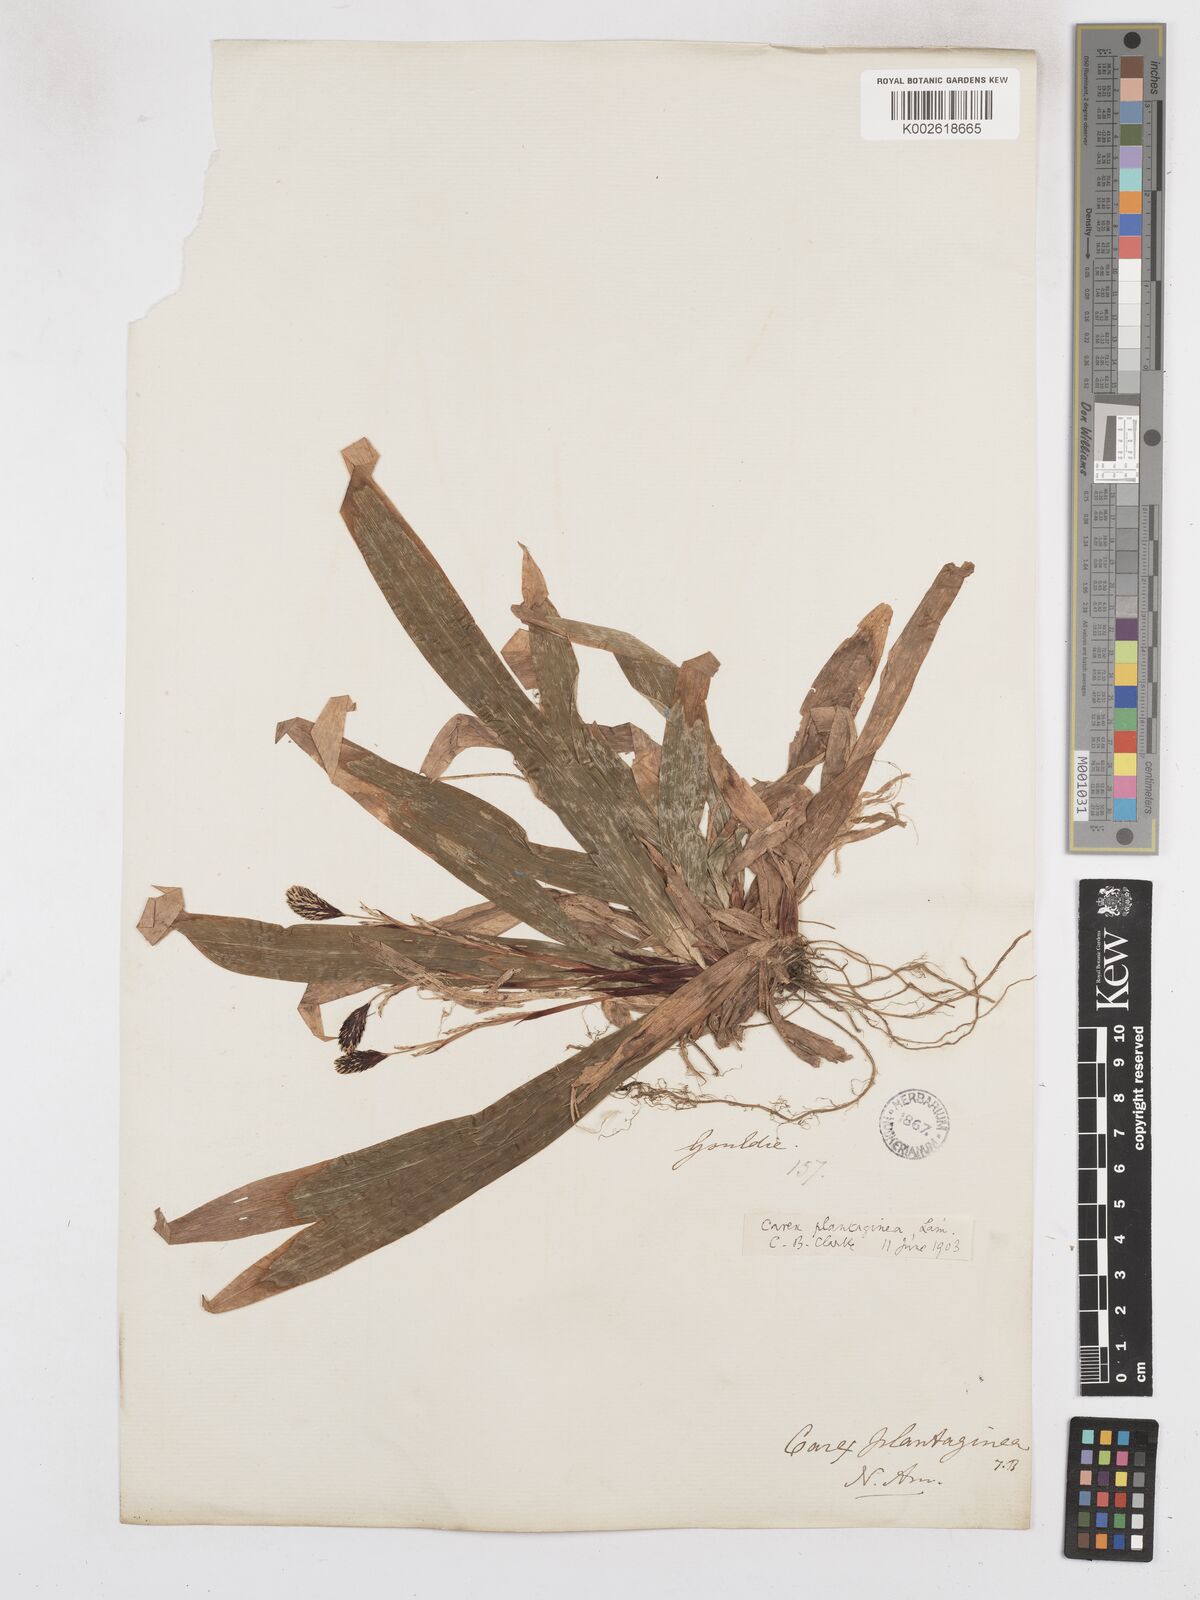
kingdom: Plantae
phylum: Tracheophyta
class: Liliopsida
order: Poales
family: Cyperaceae
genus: Carex
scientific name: Carex plantaginea
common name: Plantain-leaved sedge
